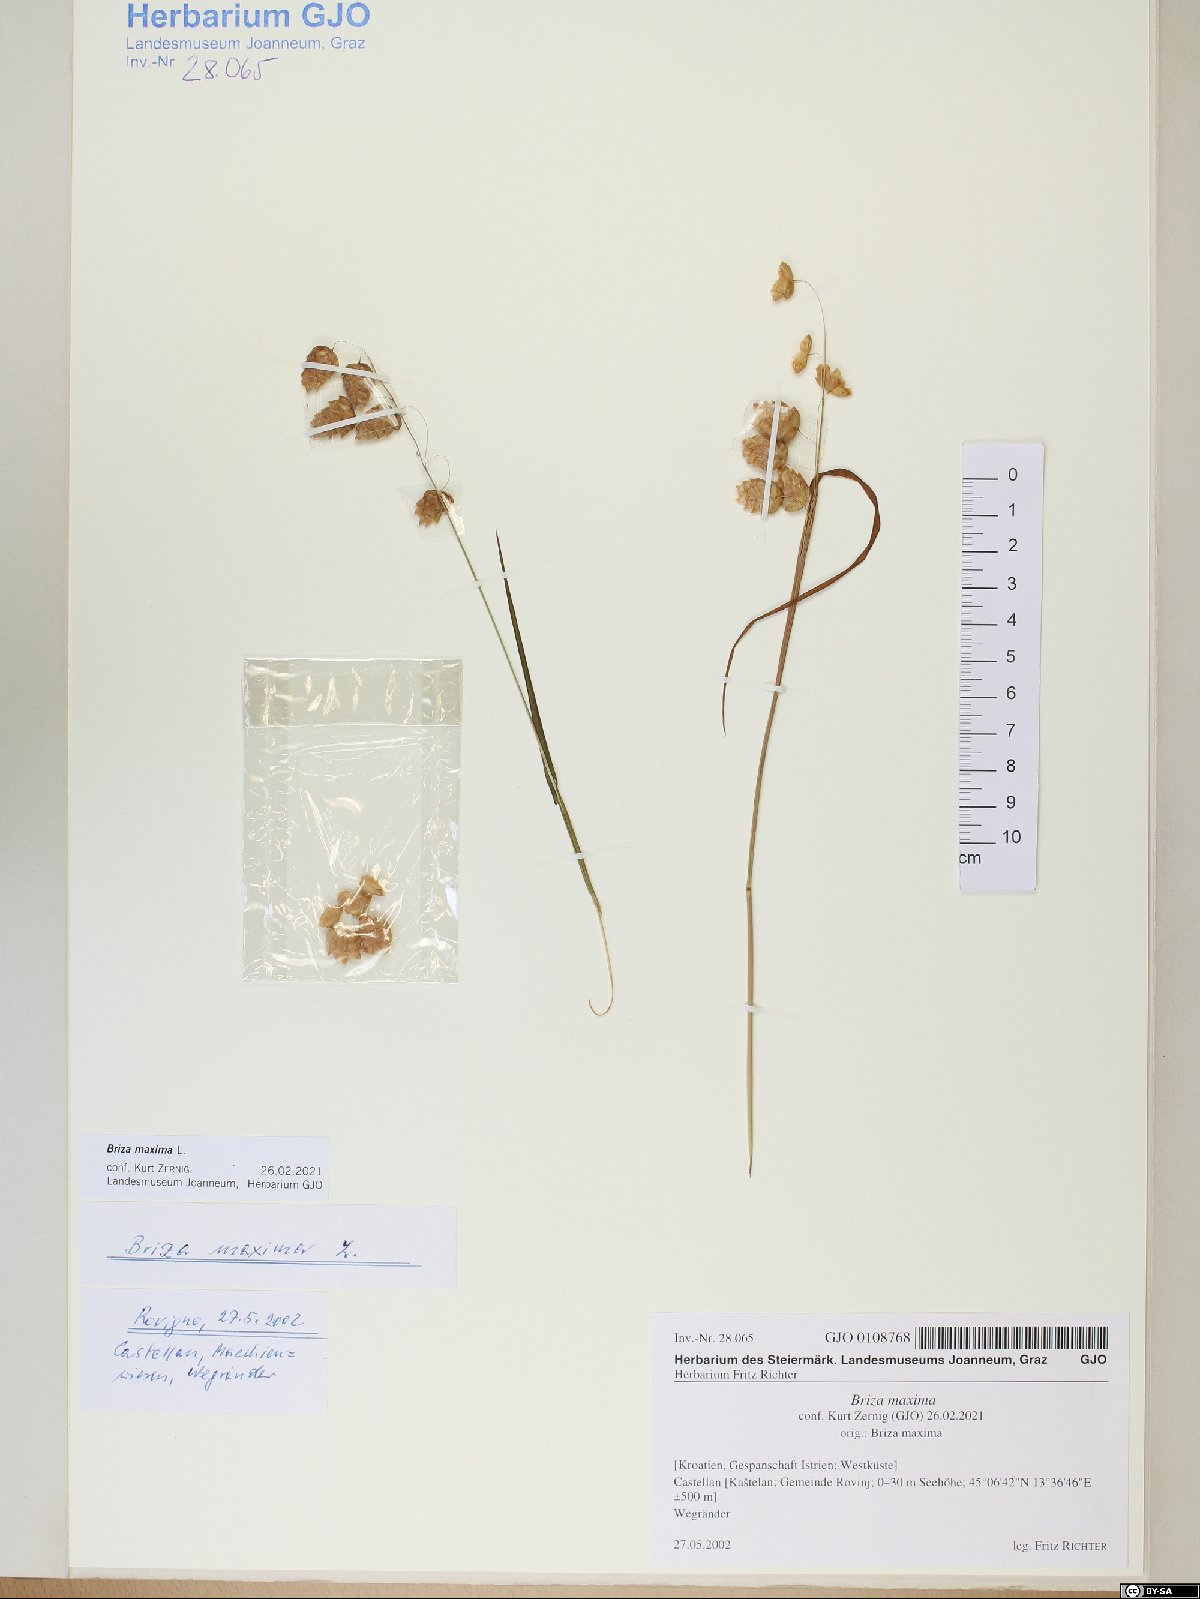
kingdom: Plantae
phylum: Tracheophyta
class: Liliopsida
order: Poales
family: Poaceae
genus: Briza
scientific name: Briza maxima
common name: Big quakinggrass
